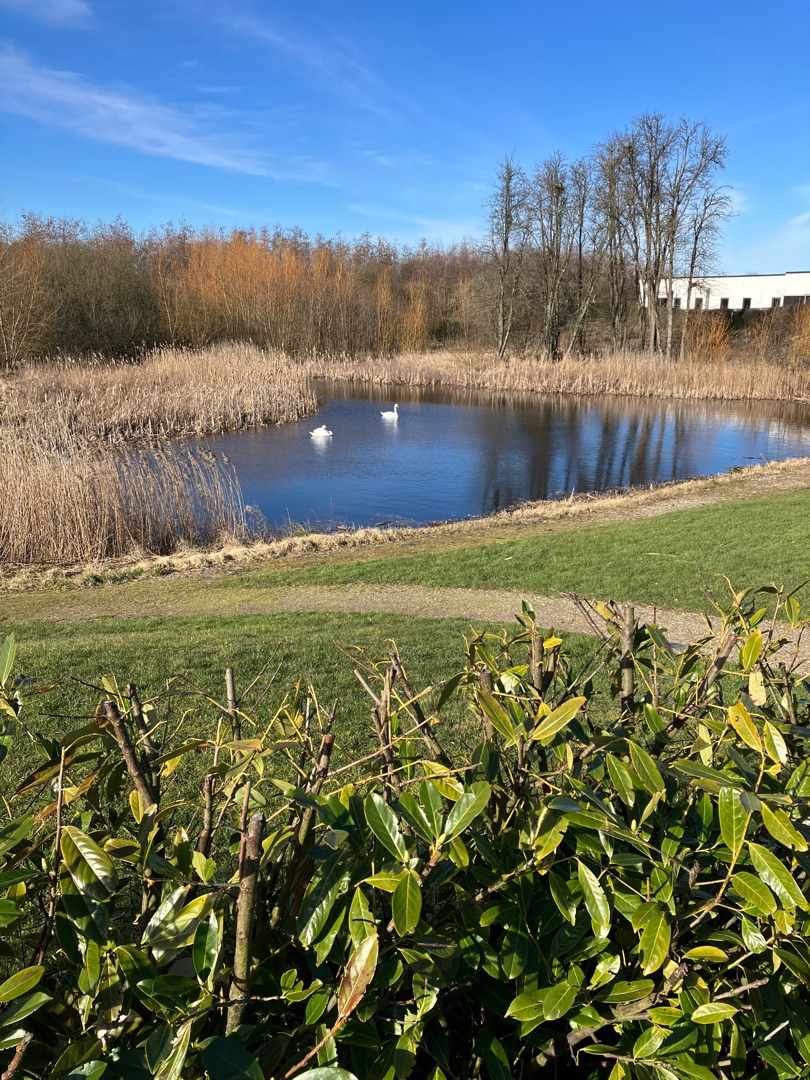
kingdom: Animalia
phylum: Chordata
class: Aves
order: Anseriformes
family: Anatidae
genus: Cygnus
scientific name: Cygnus olor
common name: Knopsvane
